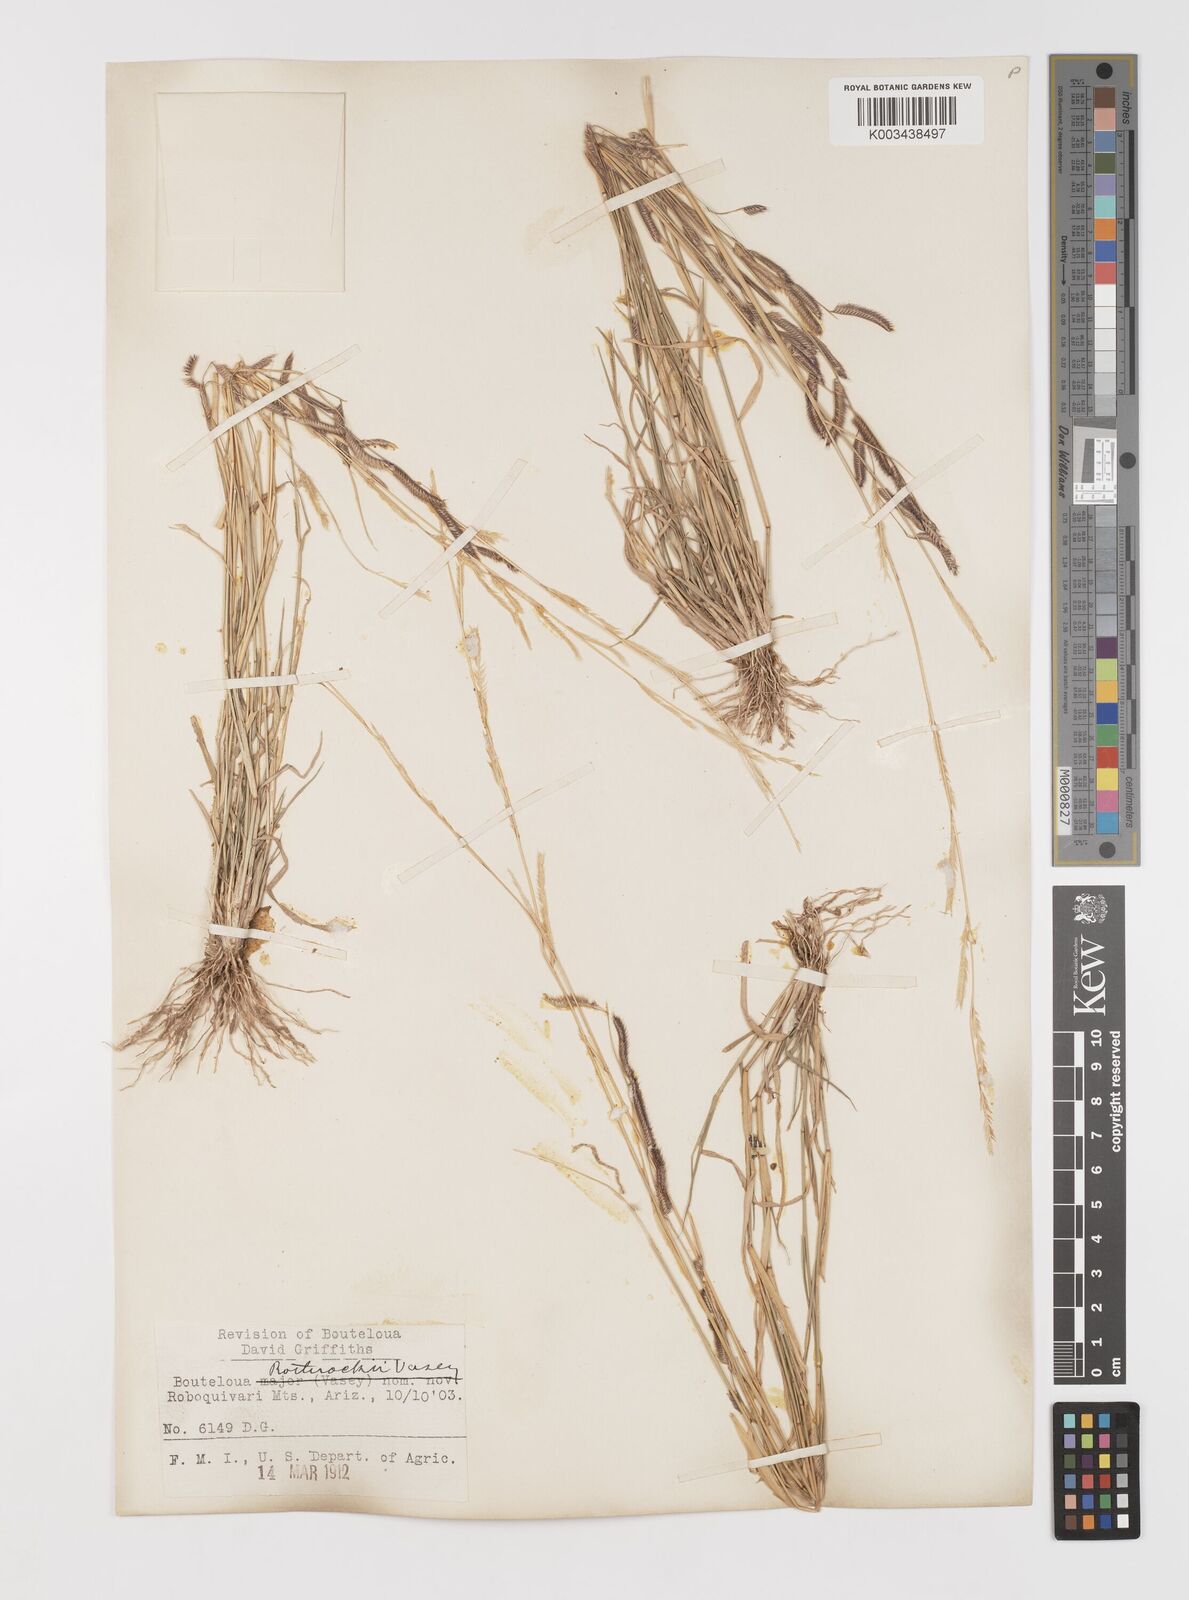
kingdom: Plantae
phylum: Tracheophyta
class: Liliopsida
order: Poales
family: Poaceae
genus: Bouteloua
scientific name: Bouteloua
